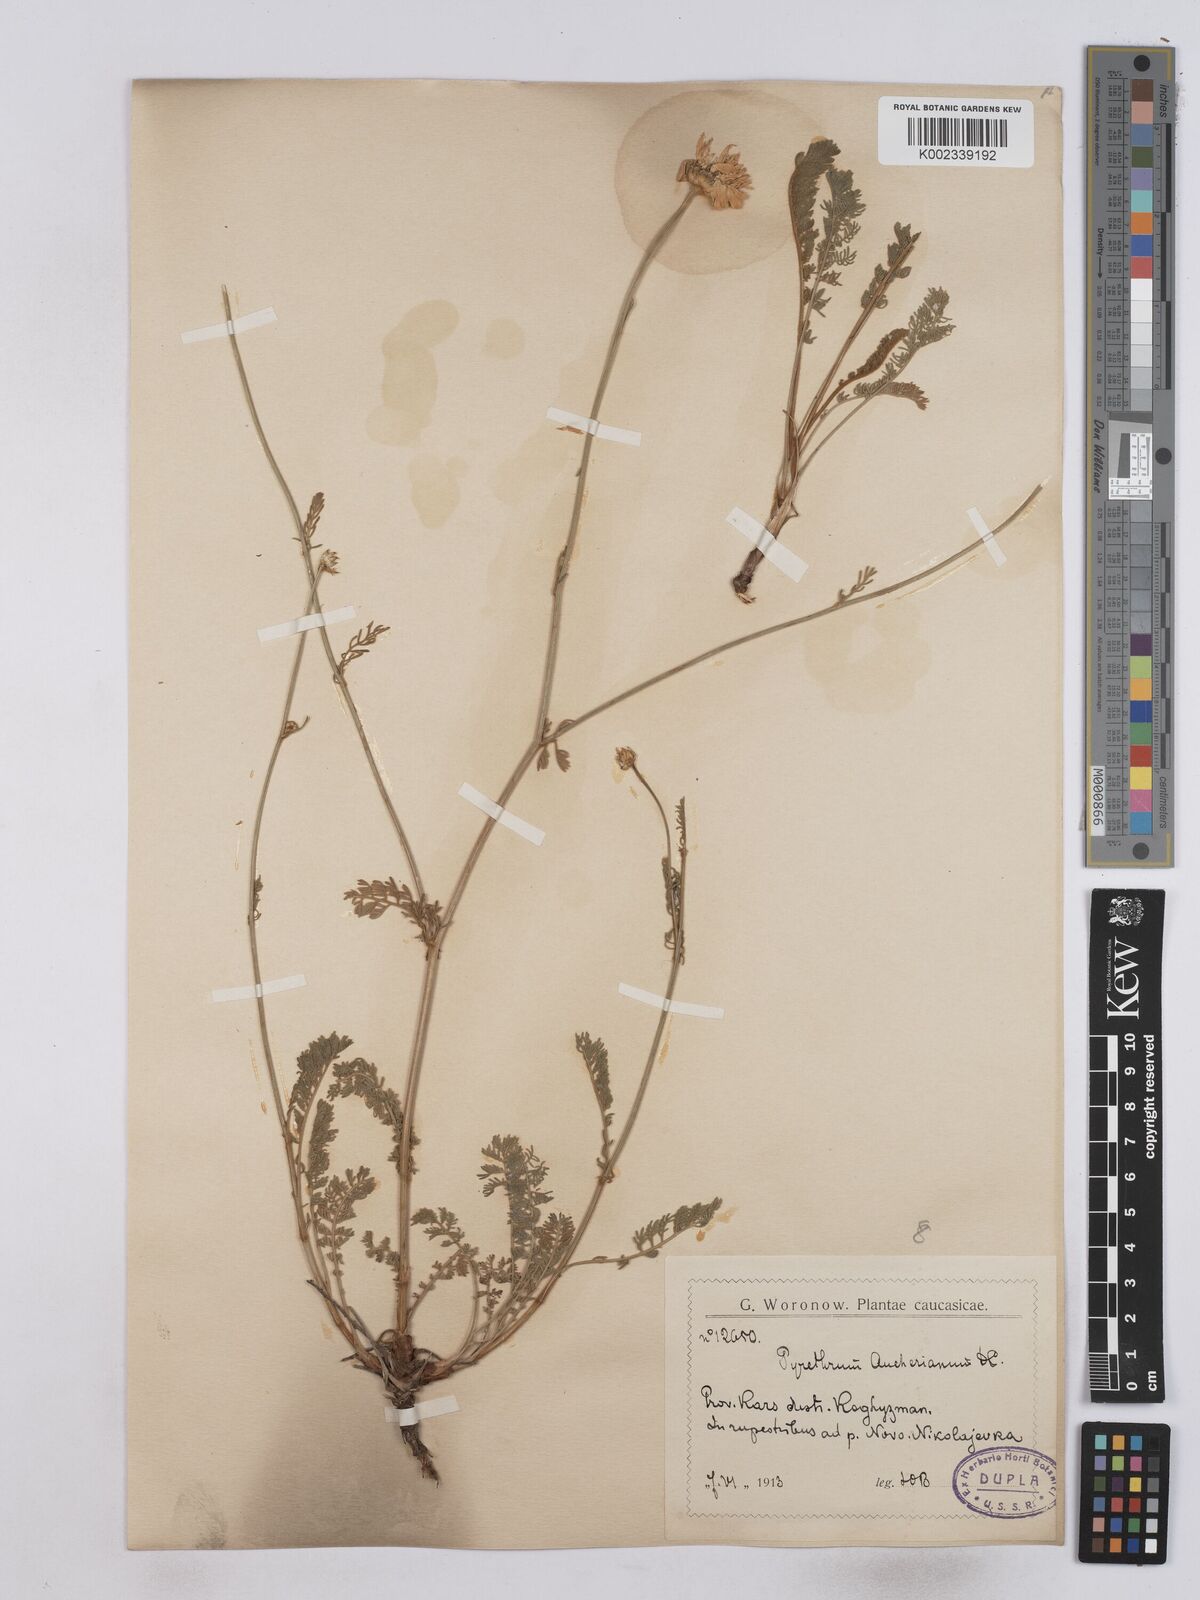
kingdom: Plantae
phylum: Tracheophyta
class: Magnoliopsida
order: Asterales
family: Asteraceae
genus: Tanacetum
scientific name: Tanacetum aucherianum
